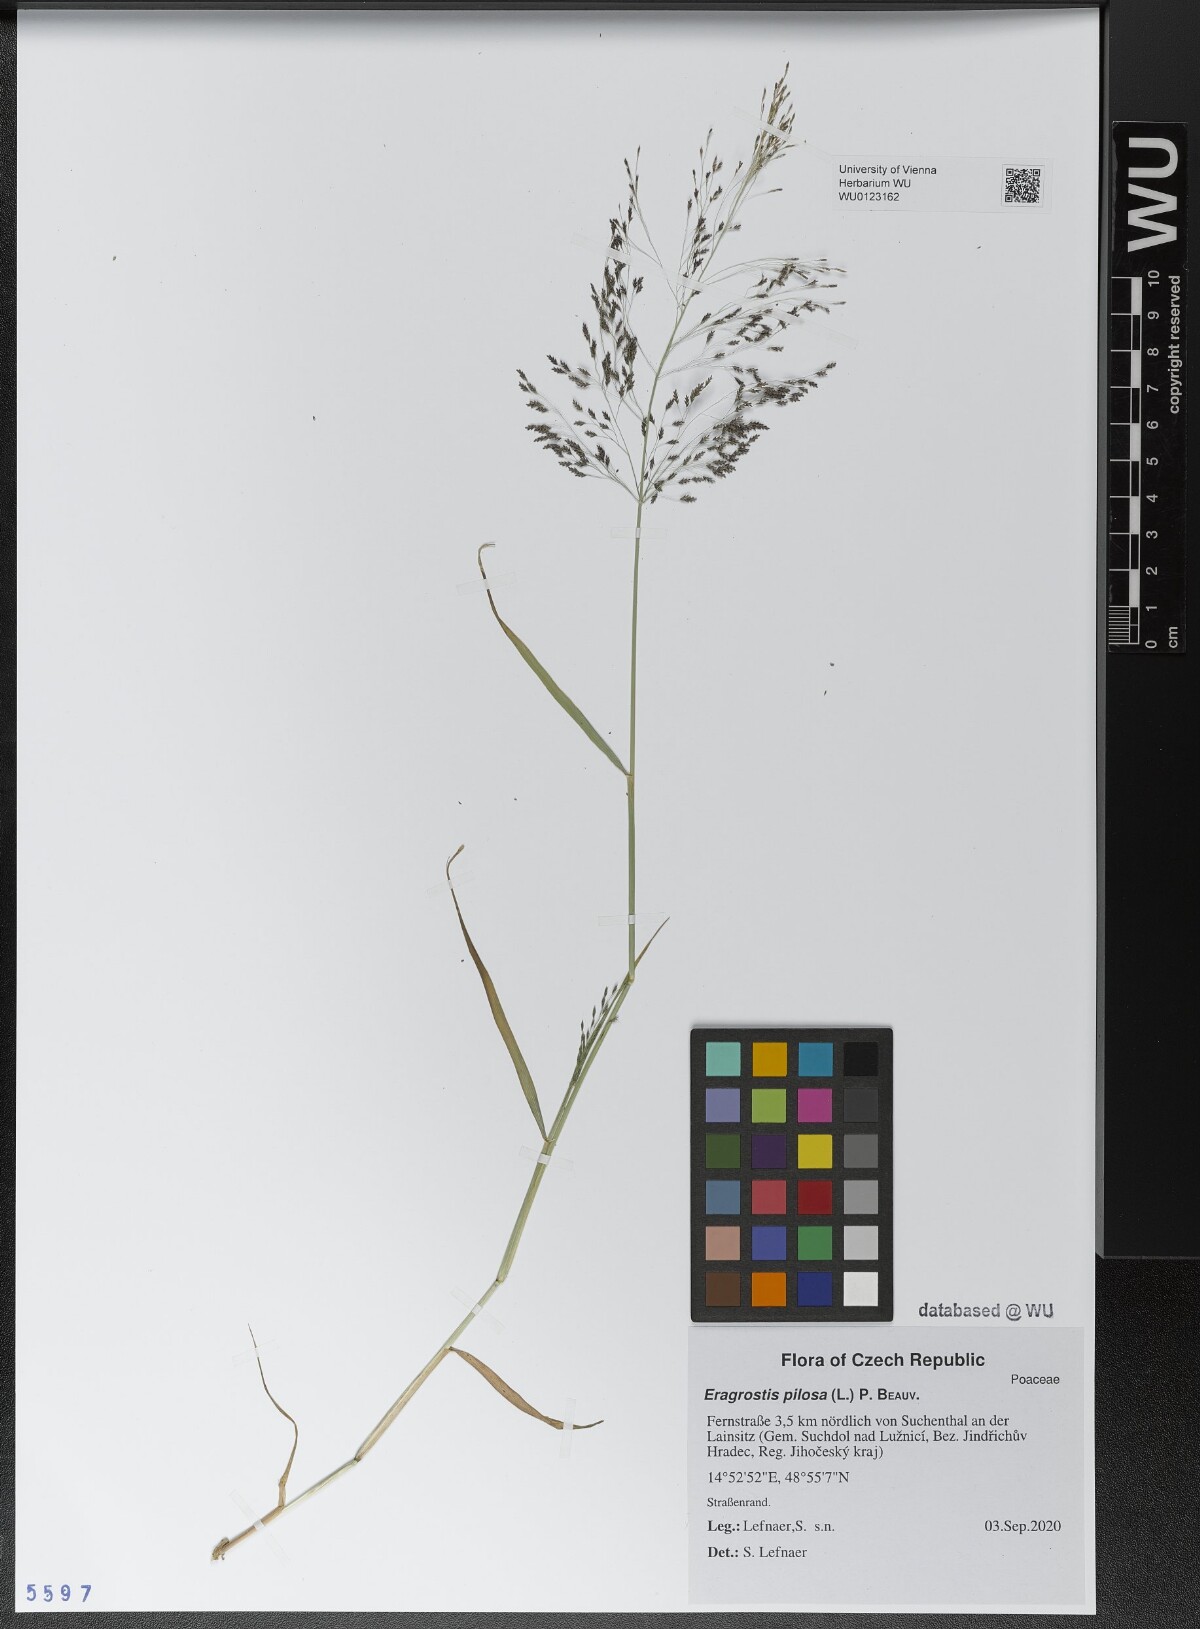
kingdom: Plantae
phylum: Tracheophyta
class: Liliopsida
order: Poales
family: Poaceae
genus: Eragrostis
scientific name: Eragrostis pilosa
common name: Indian lovegrass
